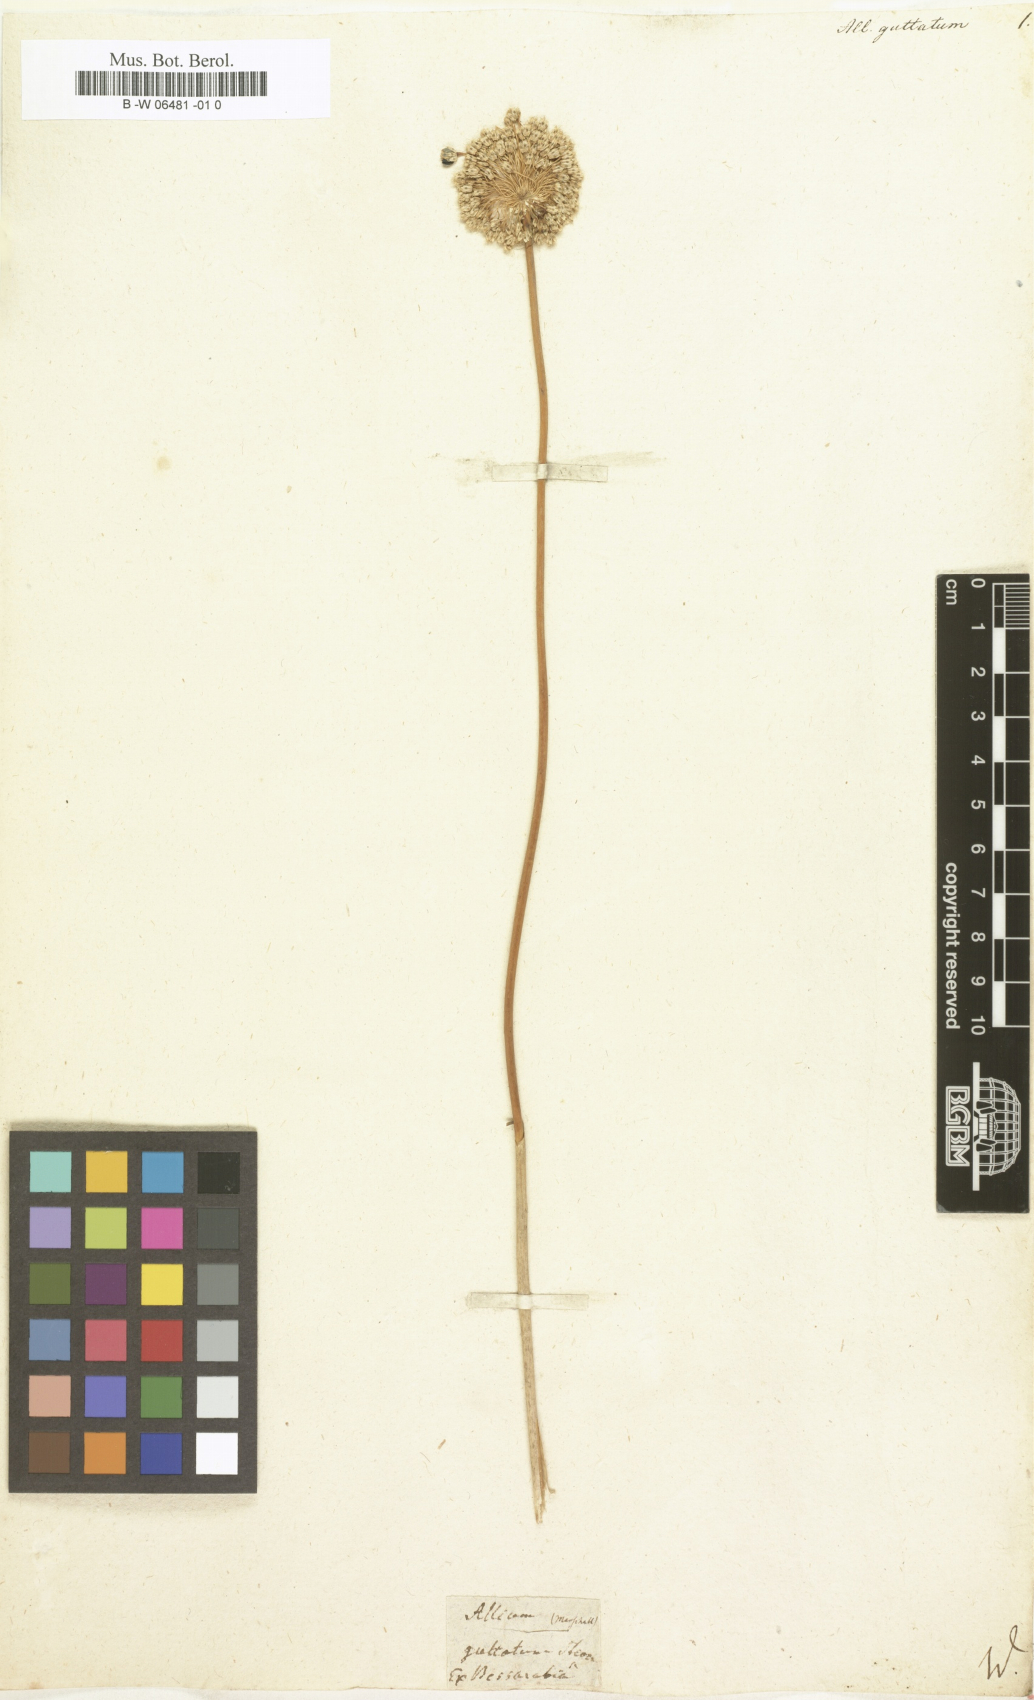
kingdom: Plantae
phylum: Tracheophyta
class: Liliopsida
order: Asparagales
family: Amaryllidaceae
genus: Allium
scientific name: Allium guttatum
